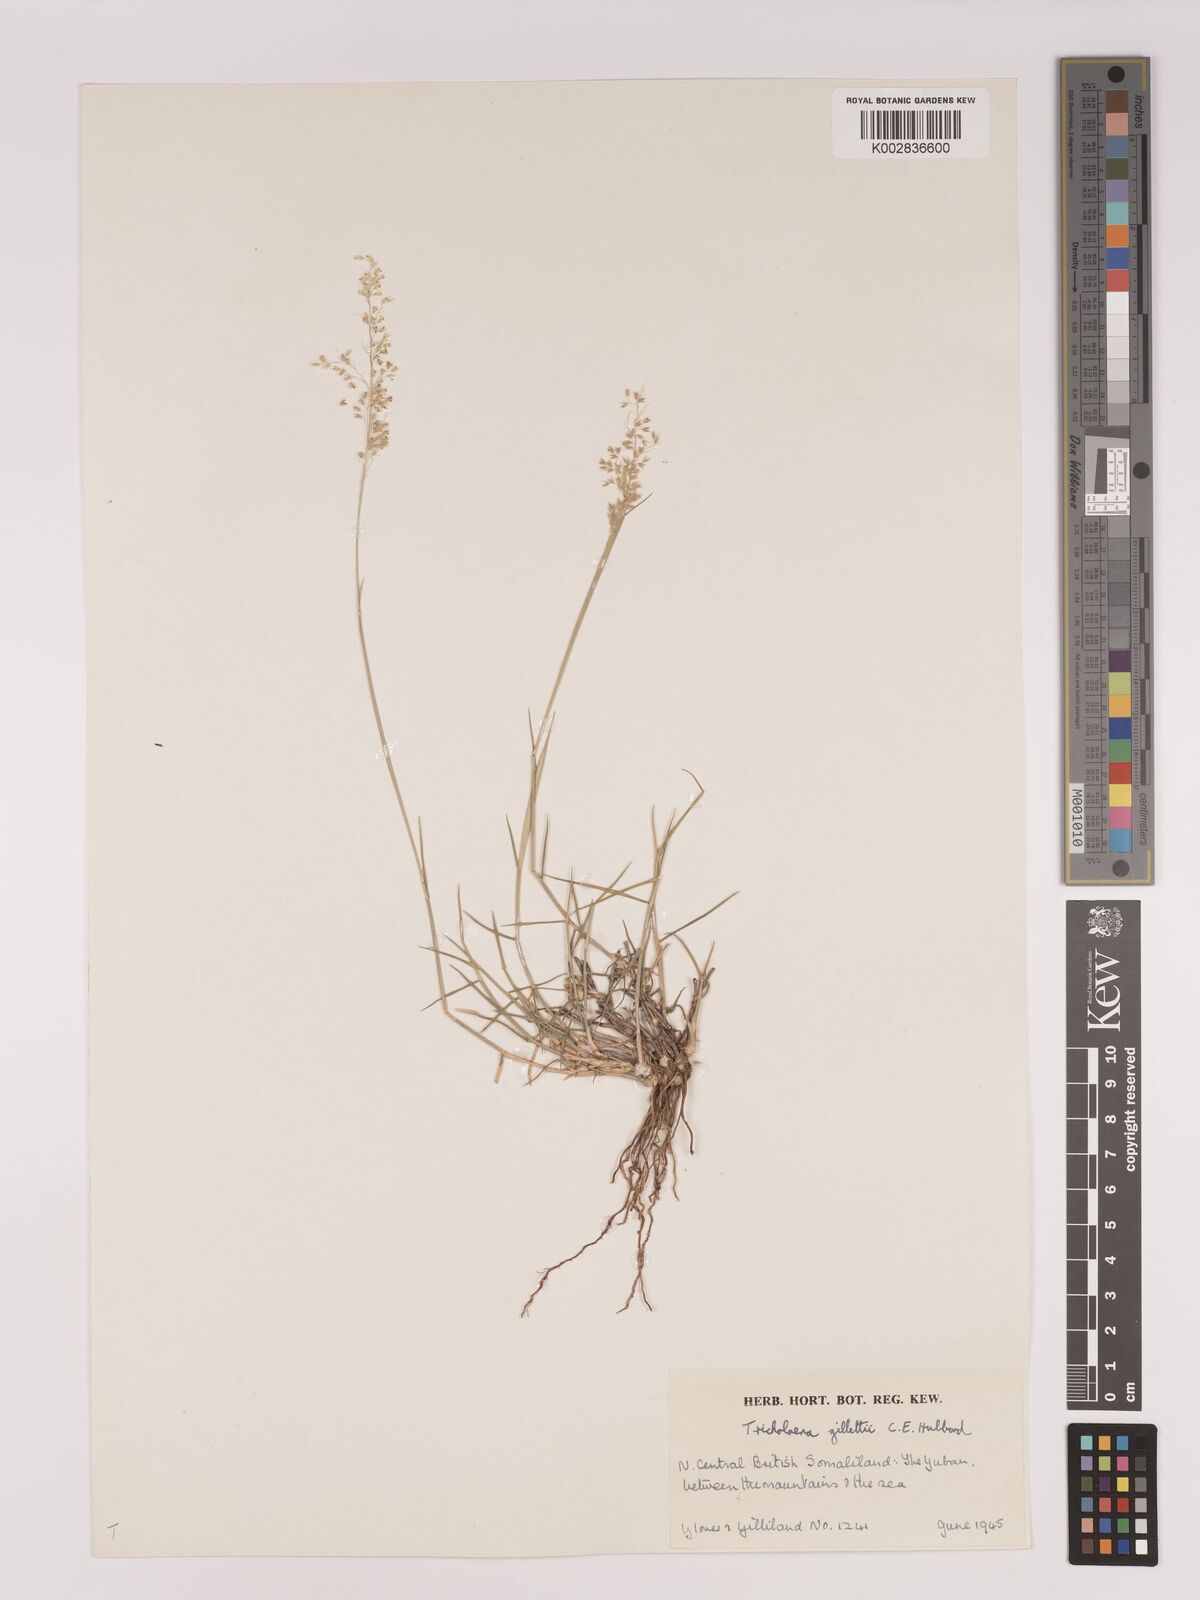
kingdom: Plantae
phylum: Tracheophyta
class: Liliopsida
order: Poales
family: Poaceae
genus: Tricholaena
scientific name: Tricholaena teneriffae
